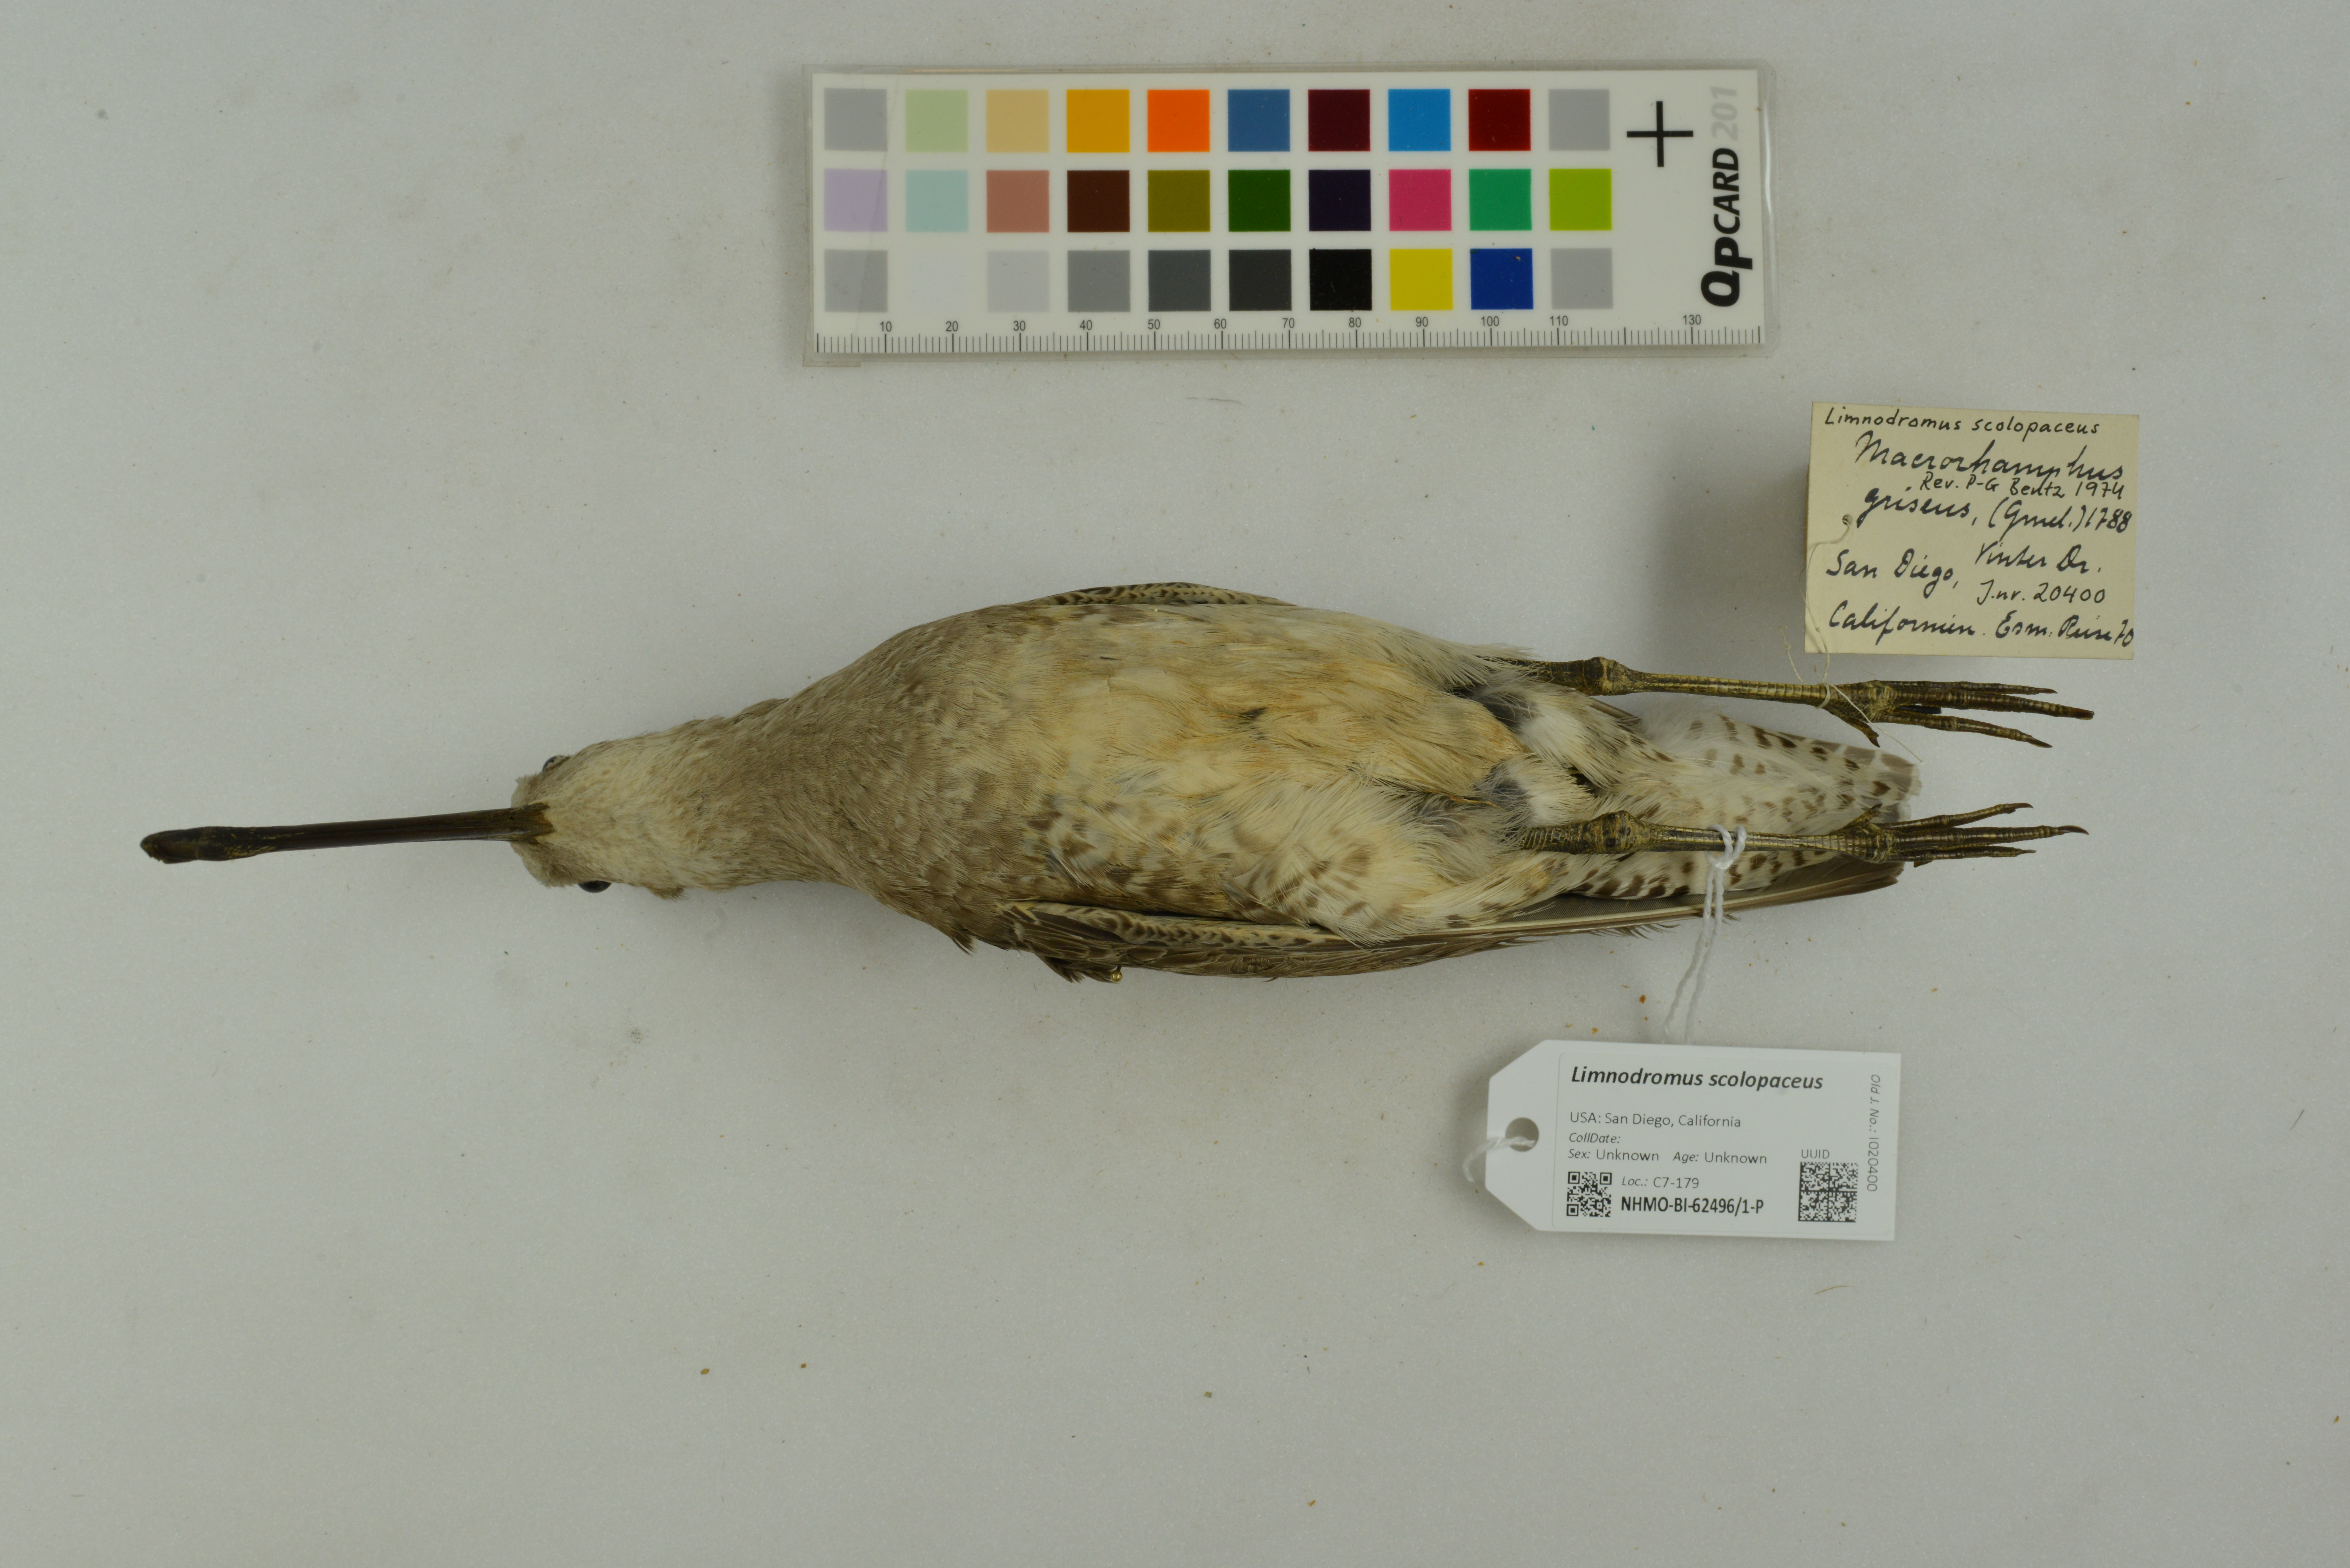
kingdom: Animalia
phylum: Chordata
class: Aves
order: Charadriiformes
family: Scolopacidae
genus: Limnodromus
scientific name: Limnodromus scolopaceus
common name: Long-billed dowitcher
